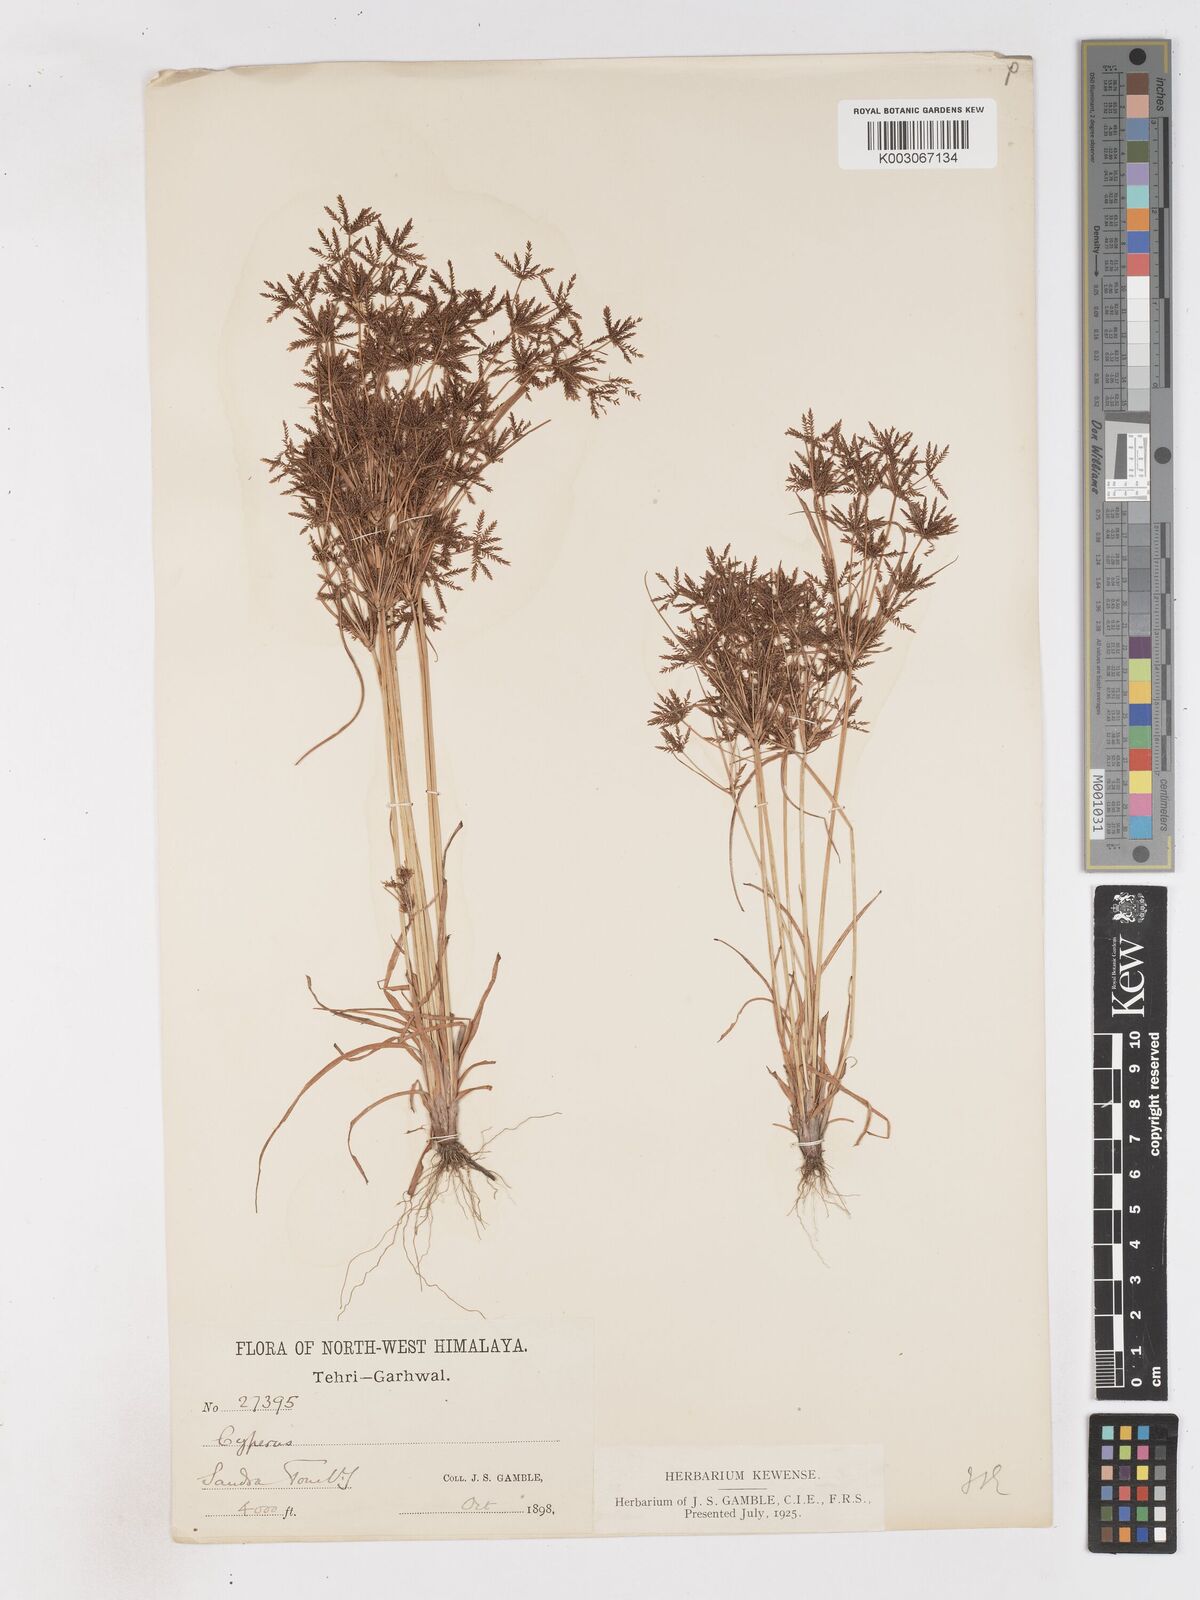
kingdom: Plantae
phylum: Tracheophyta
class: Liliopsida
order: Poales
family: Cyperaceae
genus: Cyperus
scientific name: Cyperus amabilis
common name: Foothill flat sedge
